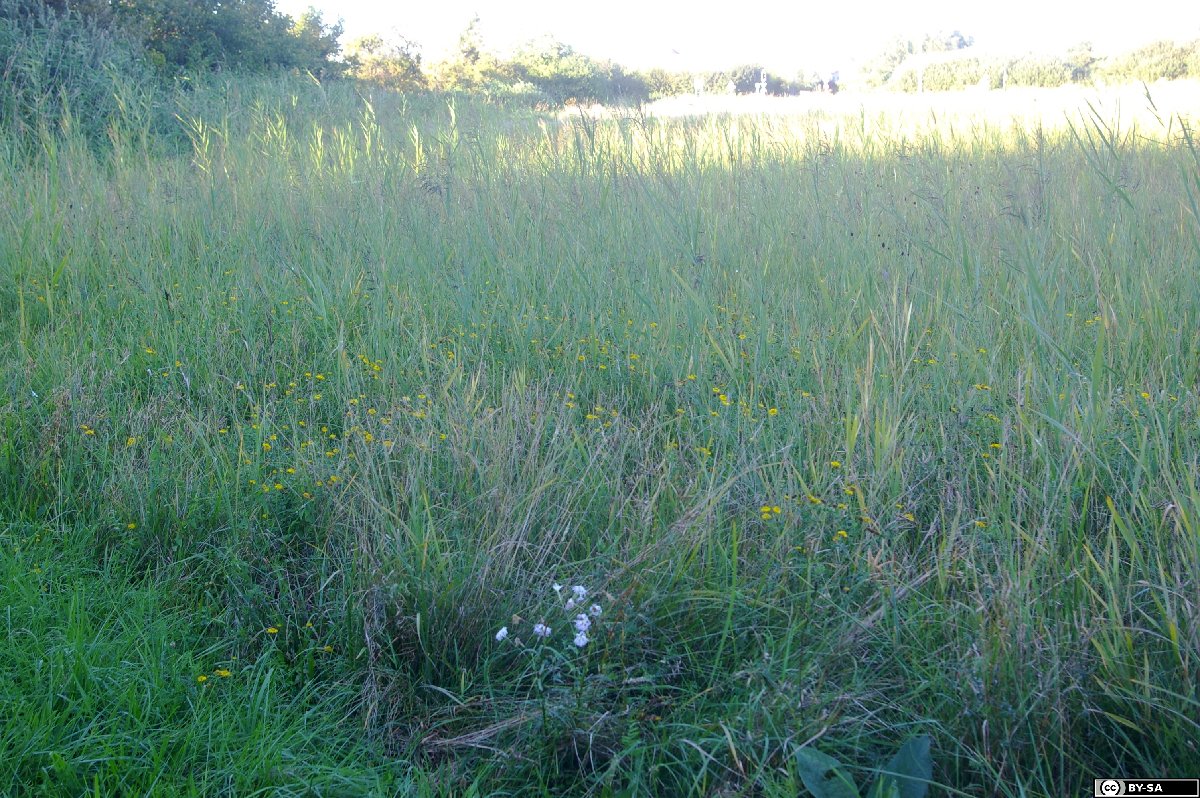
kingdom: Plantae
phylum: Tracheophyta
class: Magnoliopsida
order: Caryophyllales
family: Caryophyllaceae
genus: Dianthus
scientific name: Dianthus superbus
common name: Fringed pink
